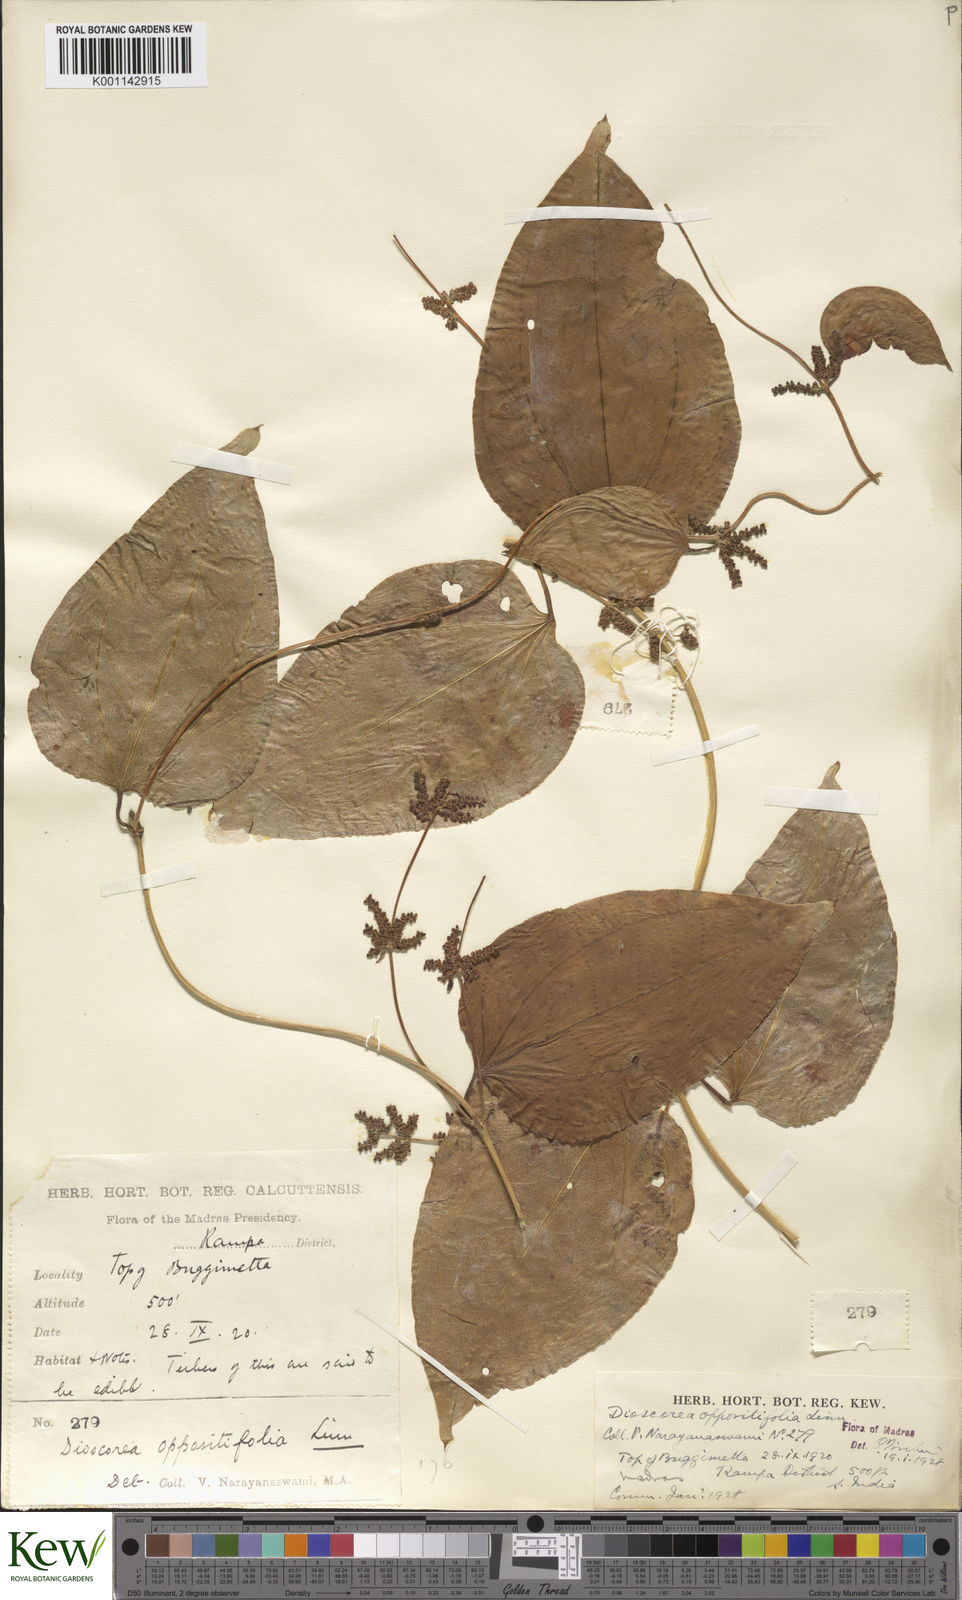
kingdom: Plantae
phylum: Tracheophyta
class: Liliopsida
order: Dioscoreales
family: Dioscoreaceae
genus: Dioscorea
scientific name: Dioscorea oppositifolia
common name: Chinese yam
